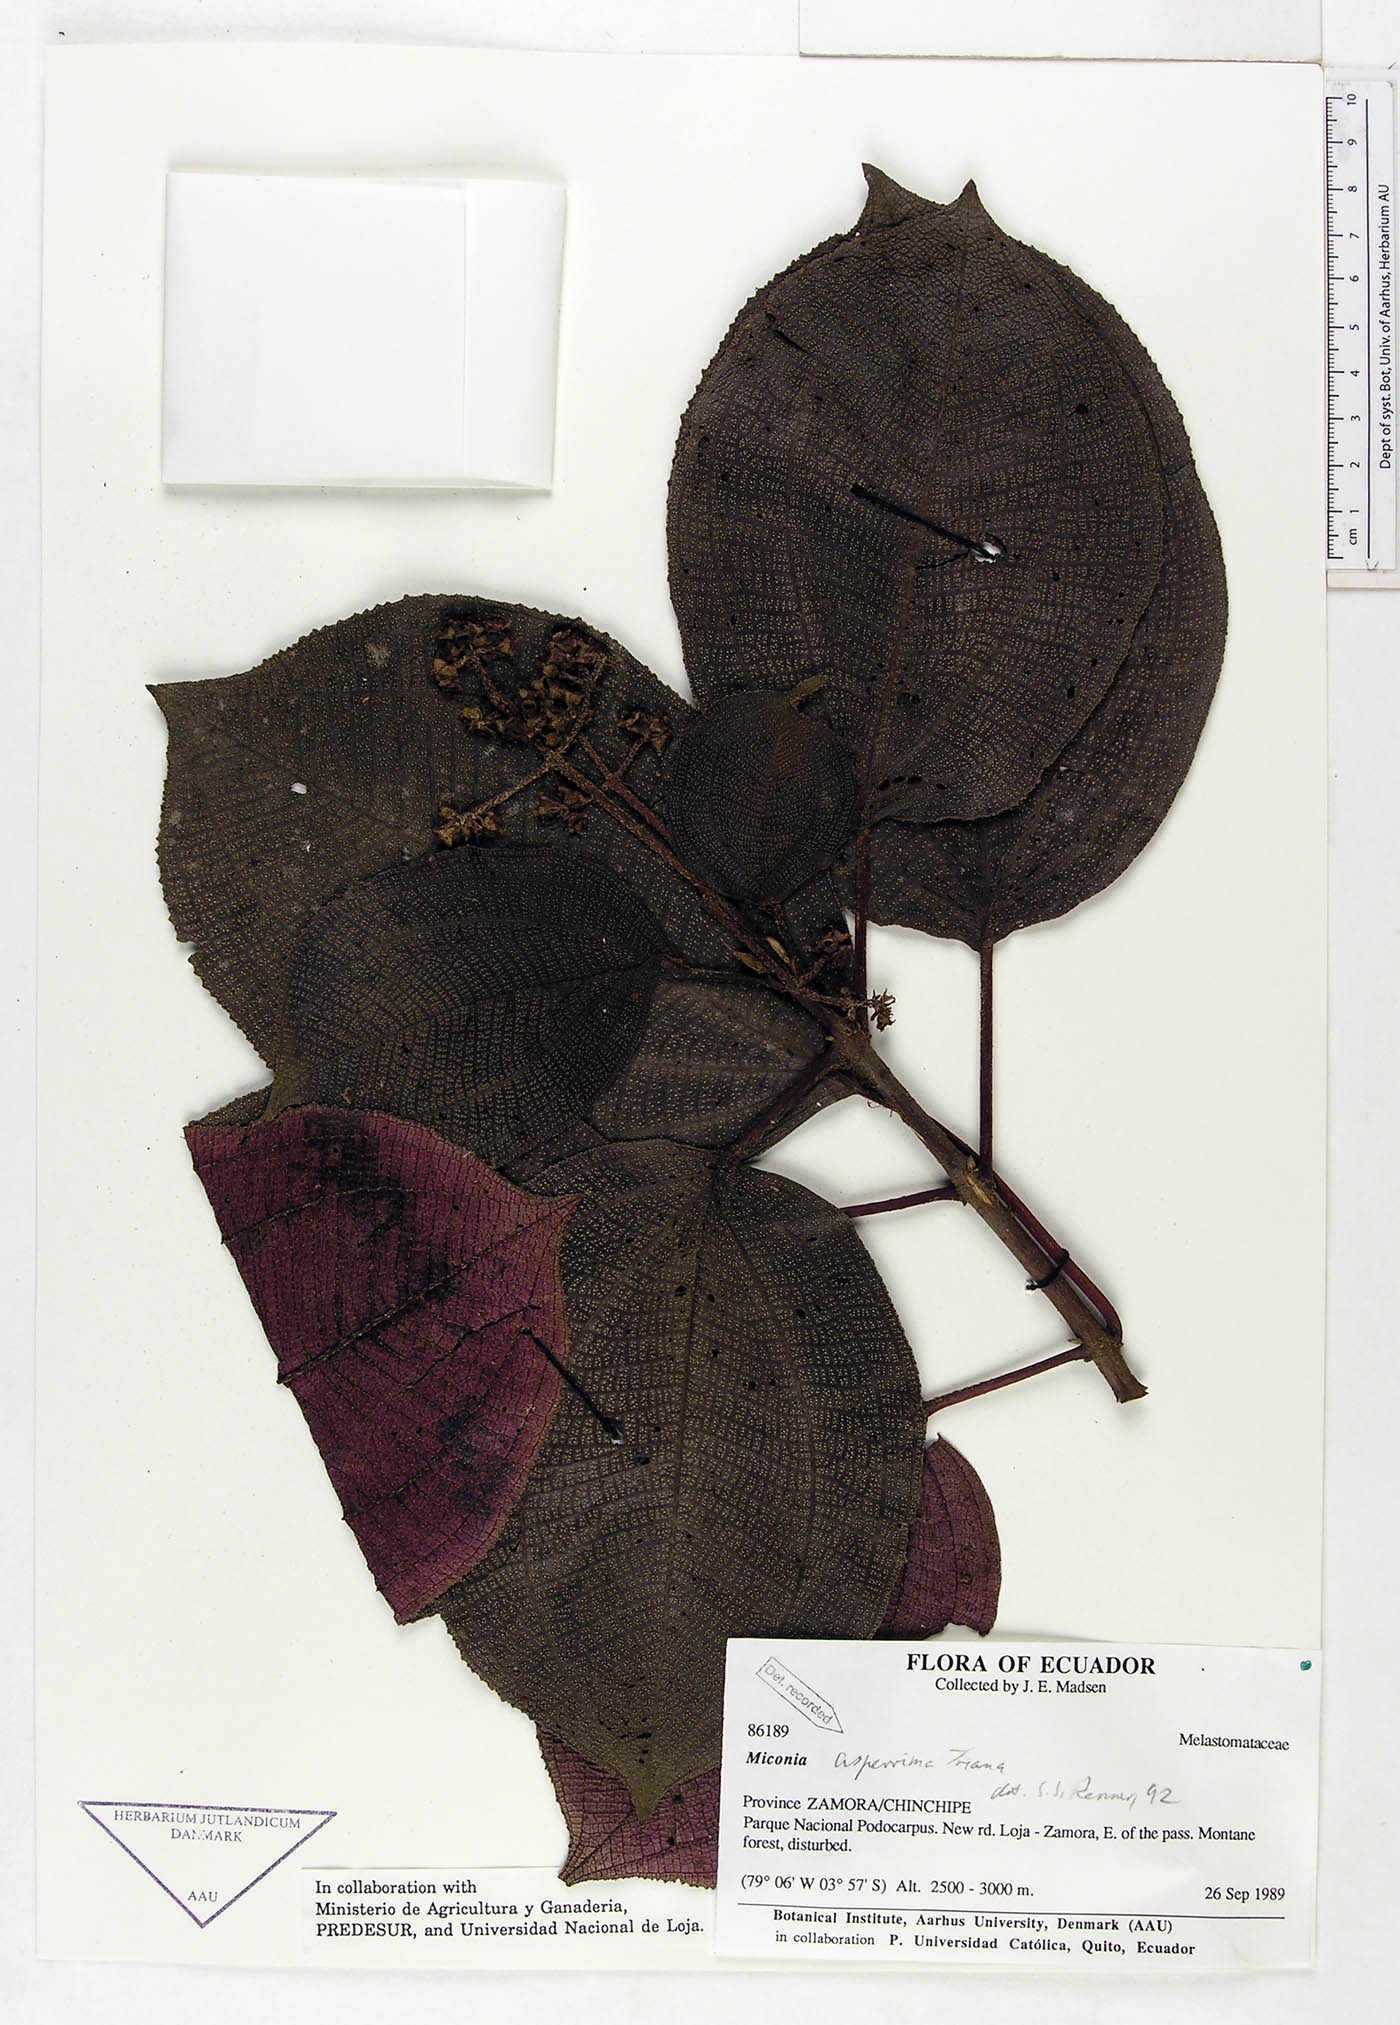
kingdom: Plantae
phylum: Tracheophyta
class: Magnoliopsida
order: Myrtales
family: Melastomataceae
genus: Miconia
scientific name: Miconia asperrima
